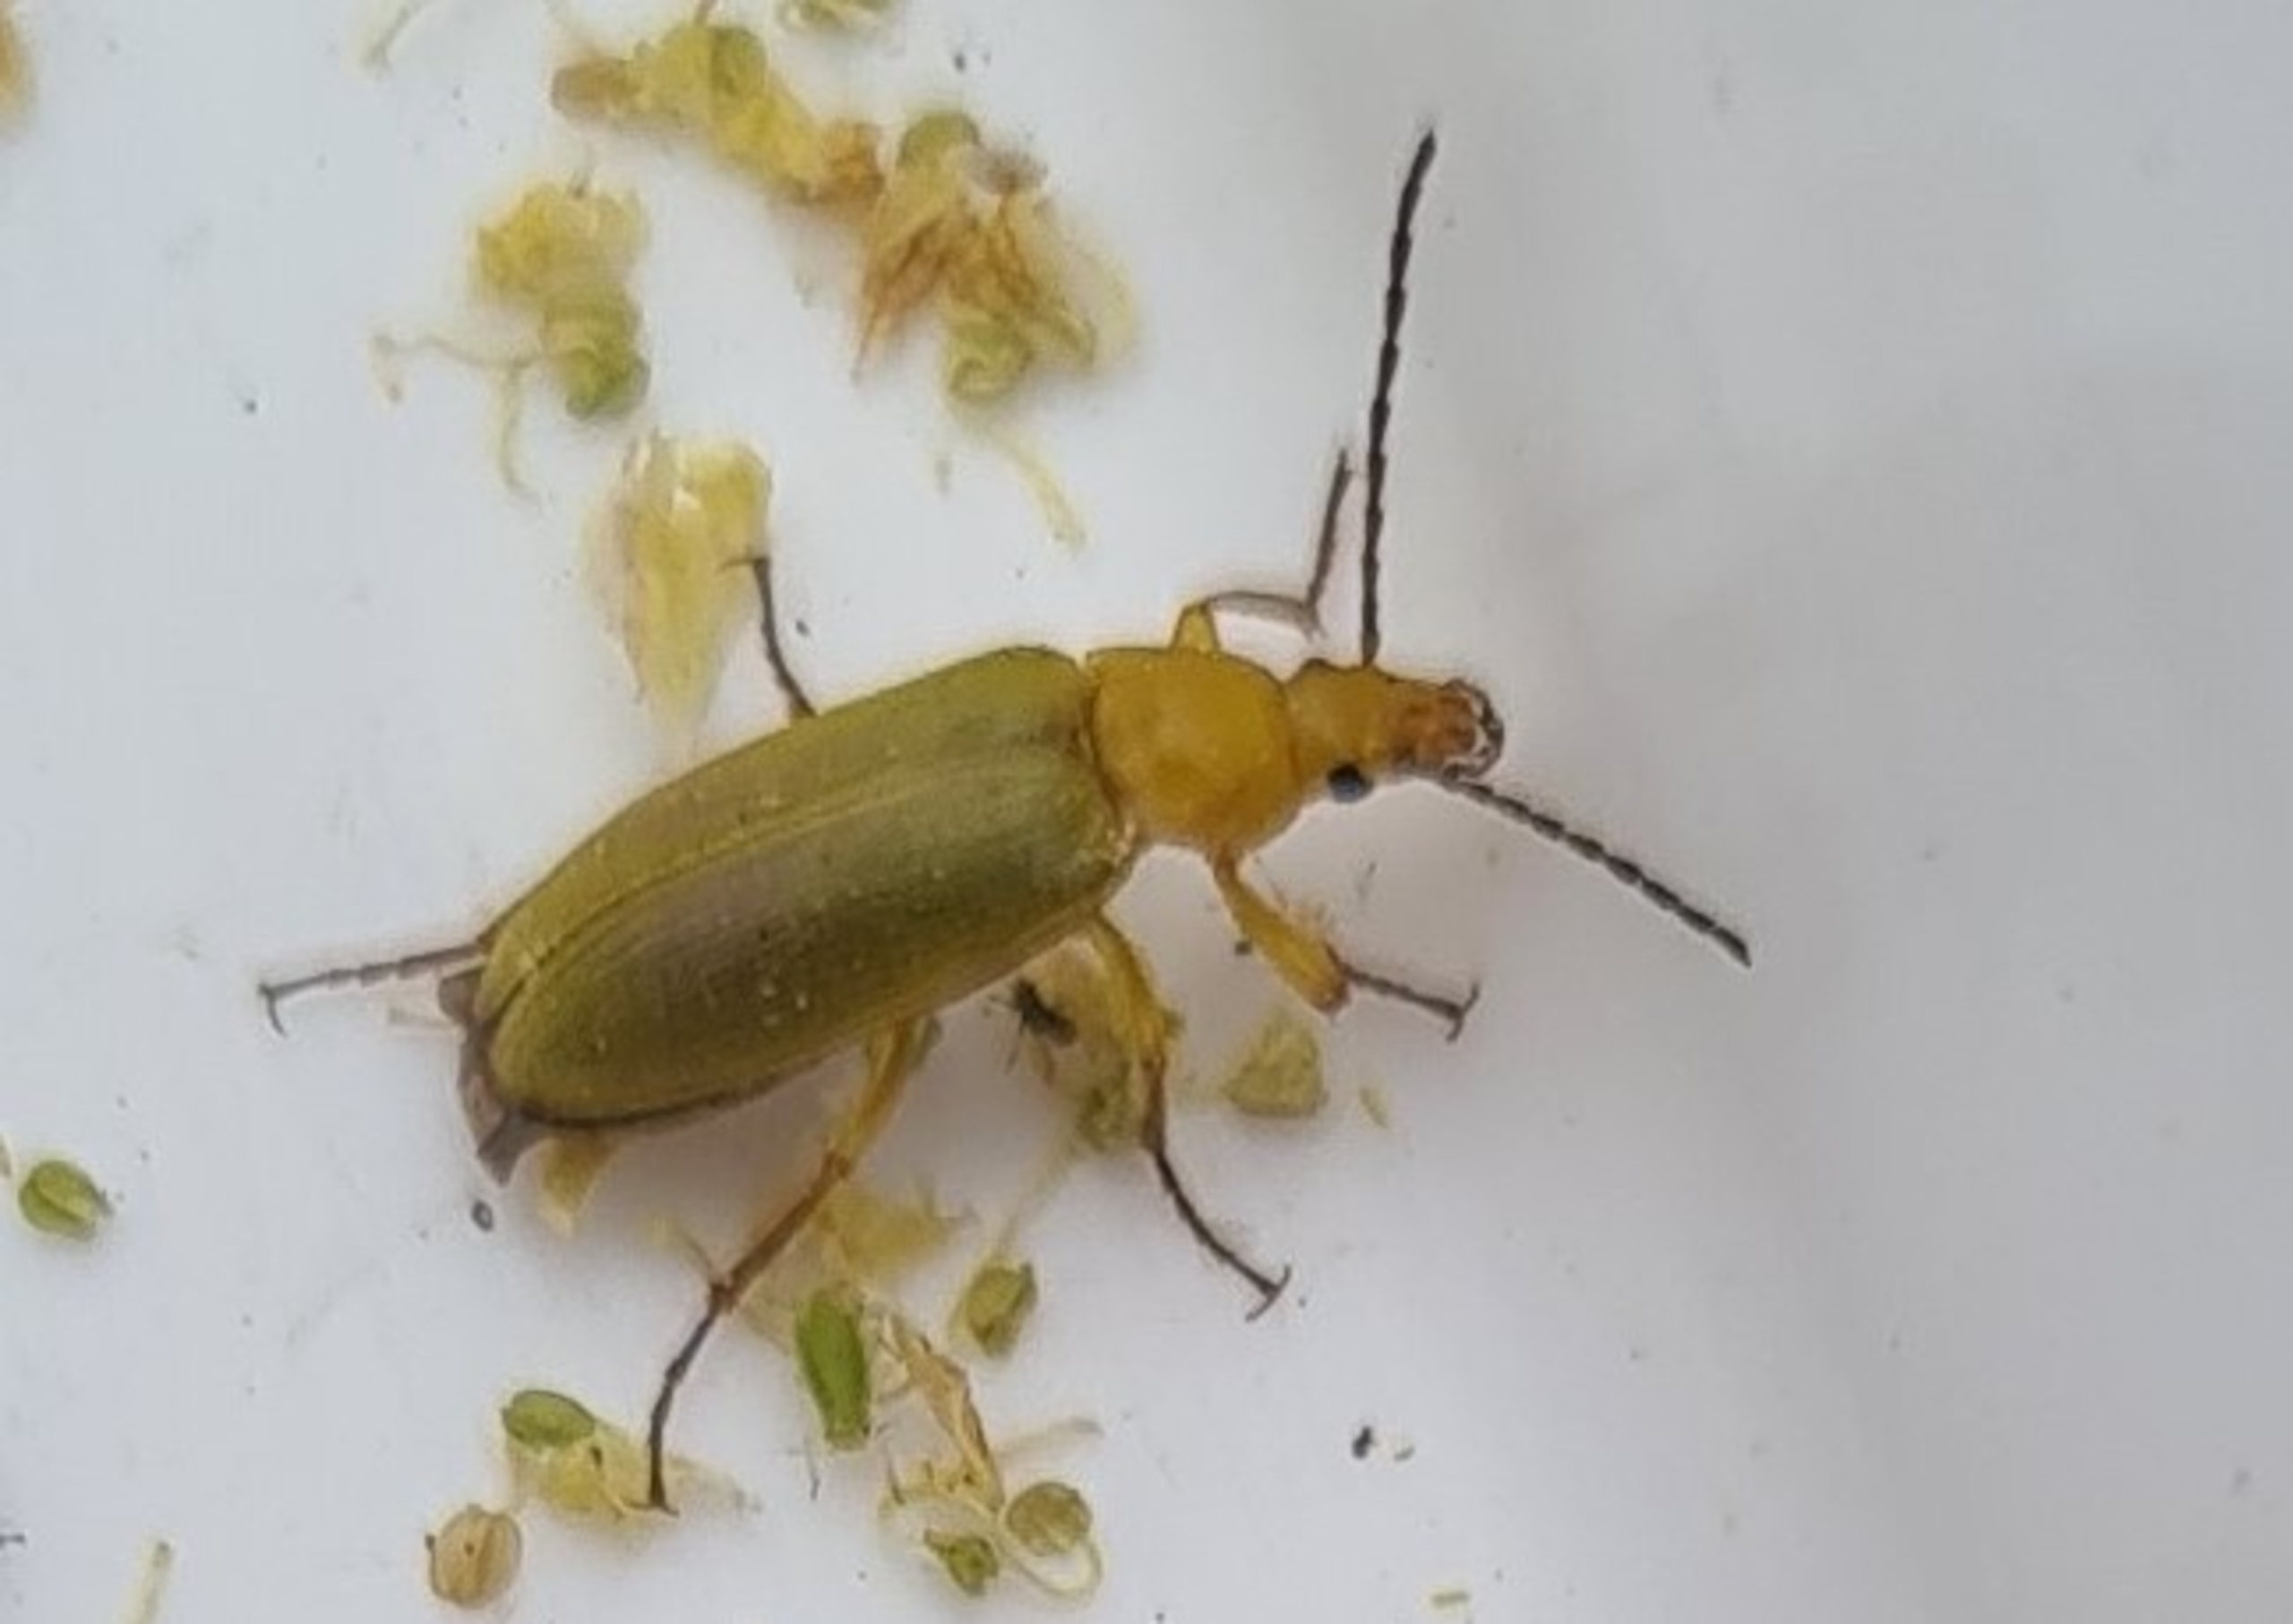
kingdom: Animalia
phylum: Arthropoda
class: Insecta
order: Coleoptera
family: Tenebrionidae
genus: Cteniopus
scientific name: Cteniopus sulphureus
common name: Svovlgul skyggebille
